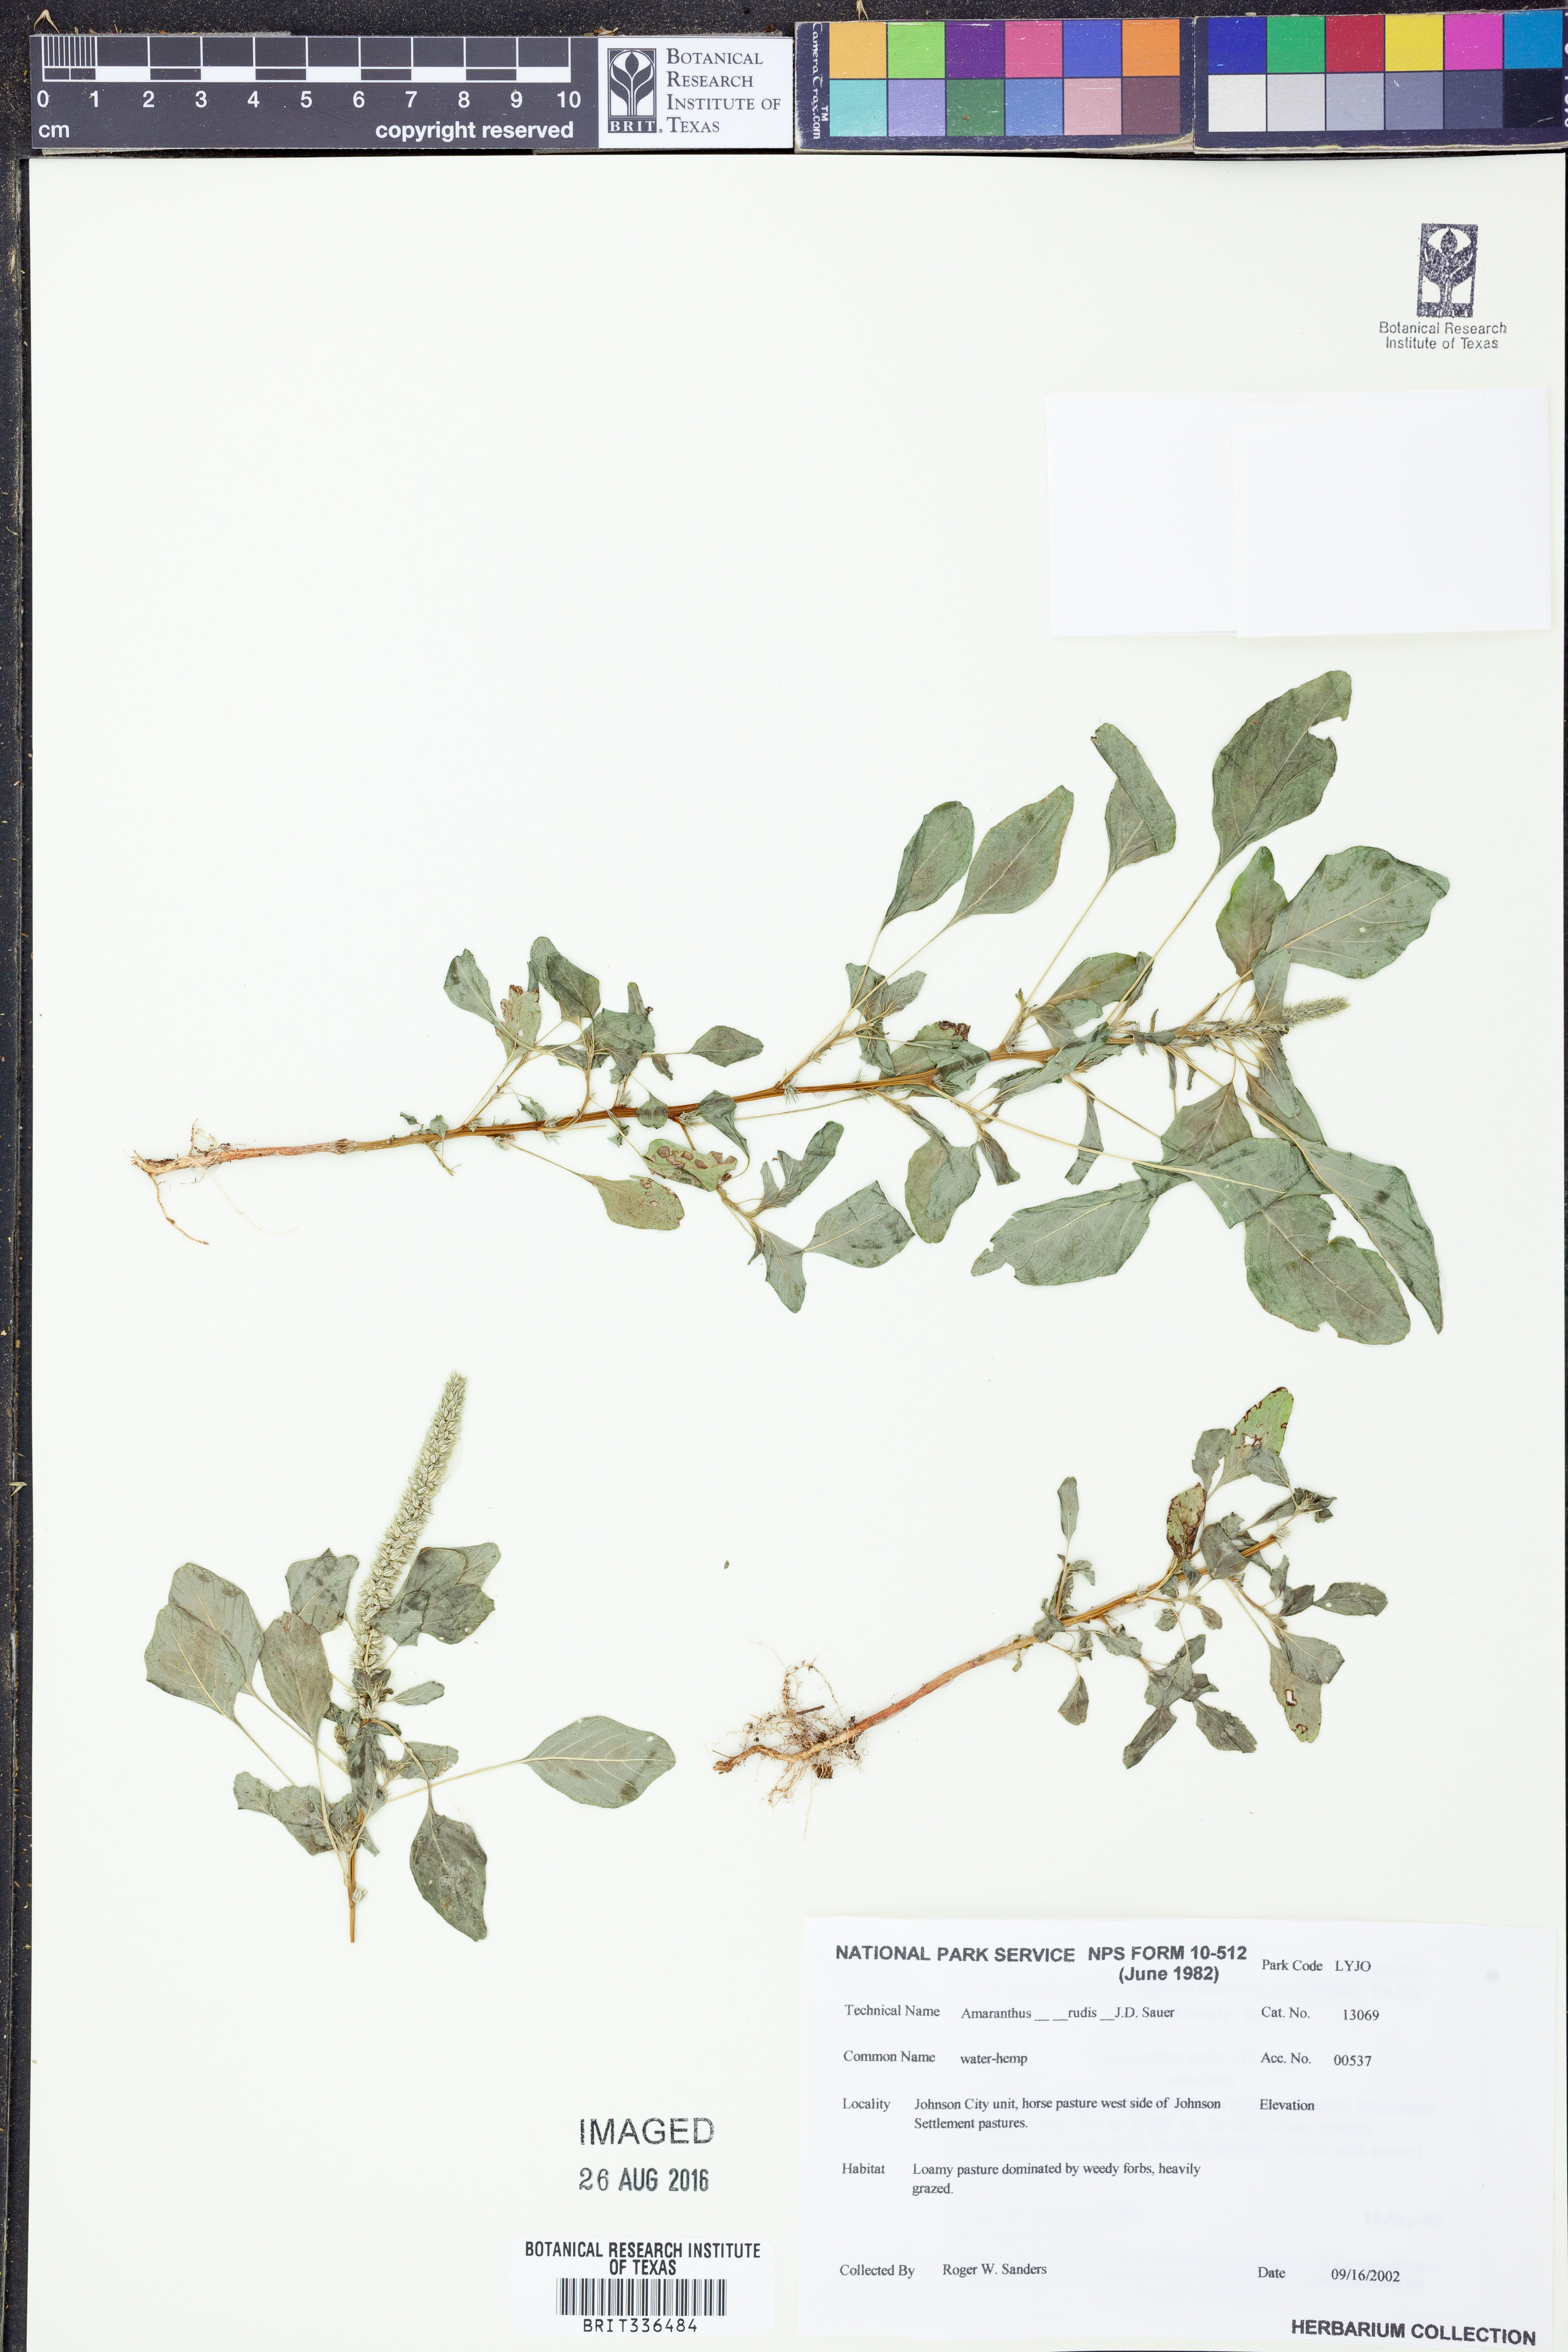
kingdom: Plantae
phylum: Tracheophyta
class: Magnoliopsida
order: Caryophyllales
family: Amaranthaceae
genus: Amaranthus
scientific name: Amaranthus tuberculatus
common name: Rough-fruit amaranth
